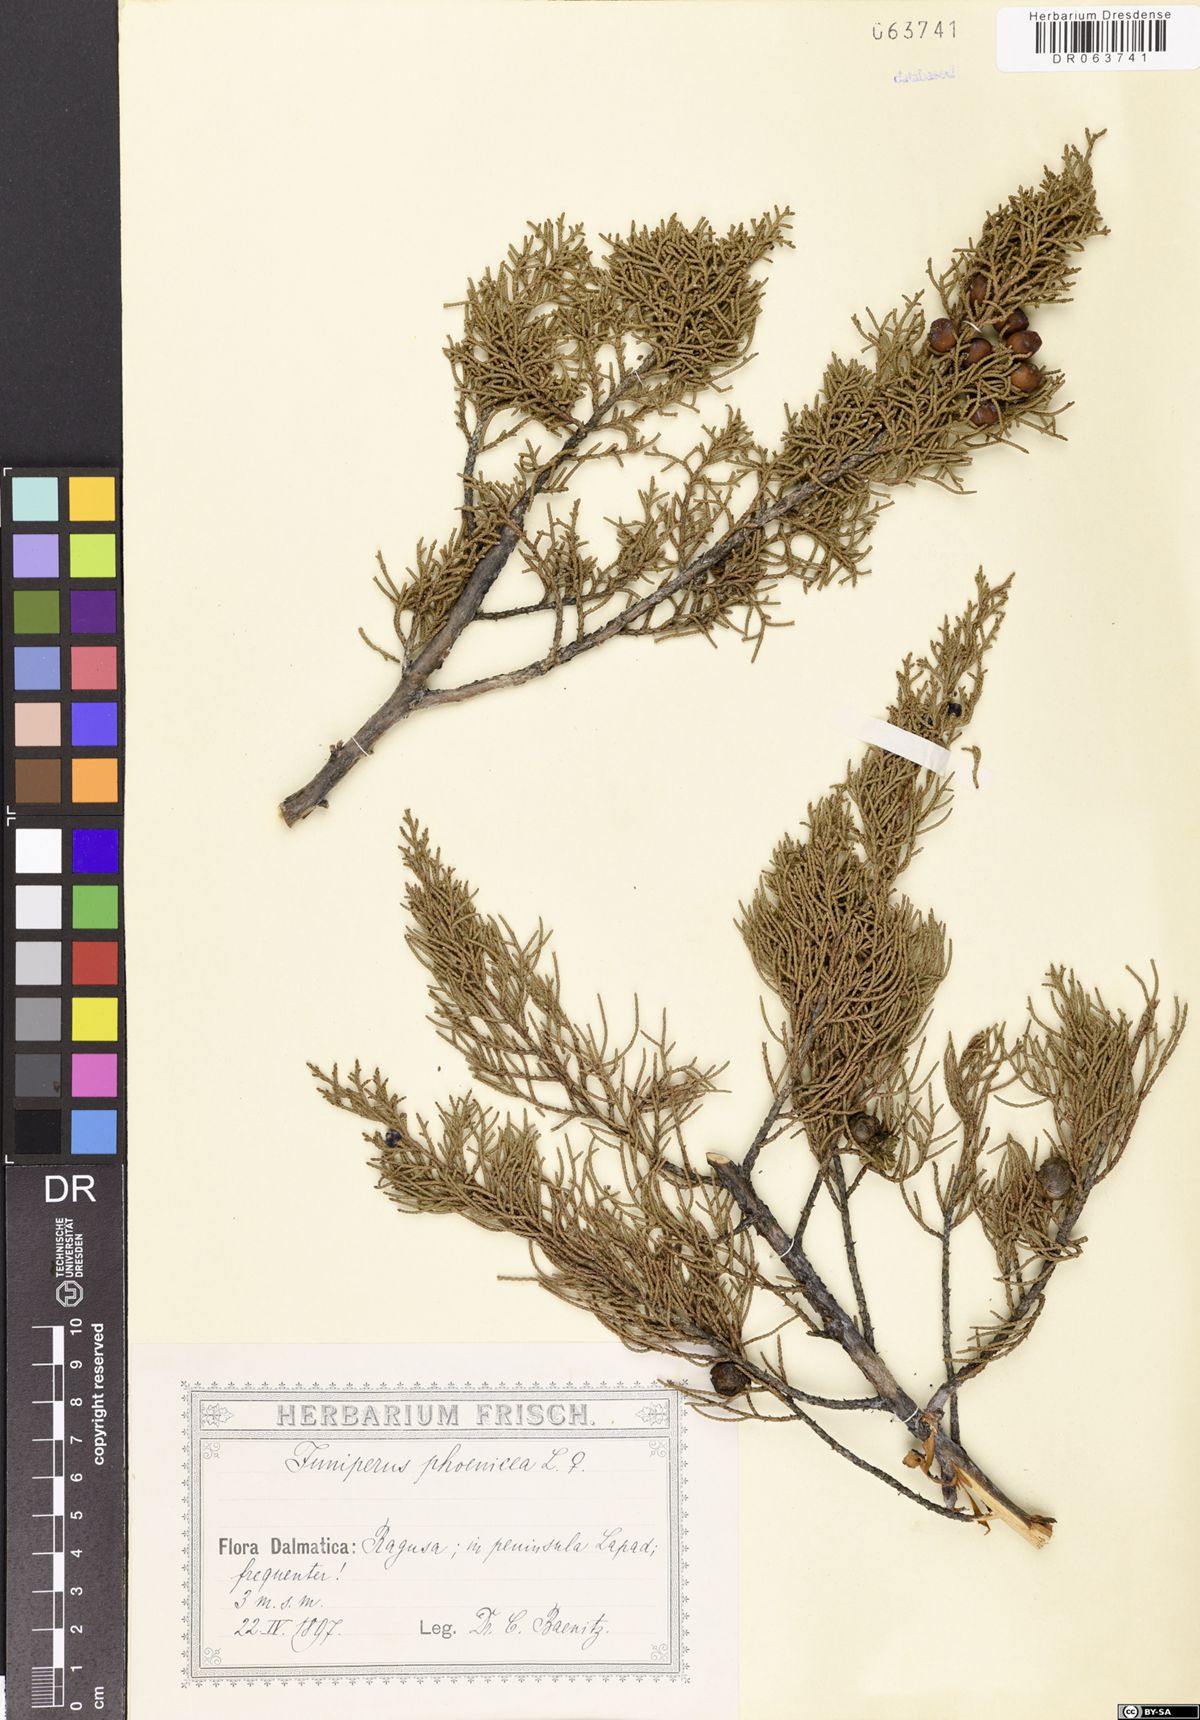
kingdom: Plantae
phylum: Tracheophyta
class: Pinopsida
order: Pinales
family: Cupressaceae
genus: Juniperus
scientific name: Juniperus phoenicea
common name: Phoenician juniper
